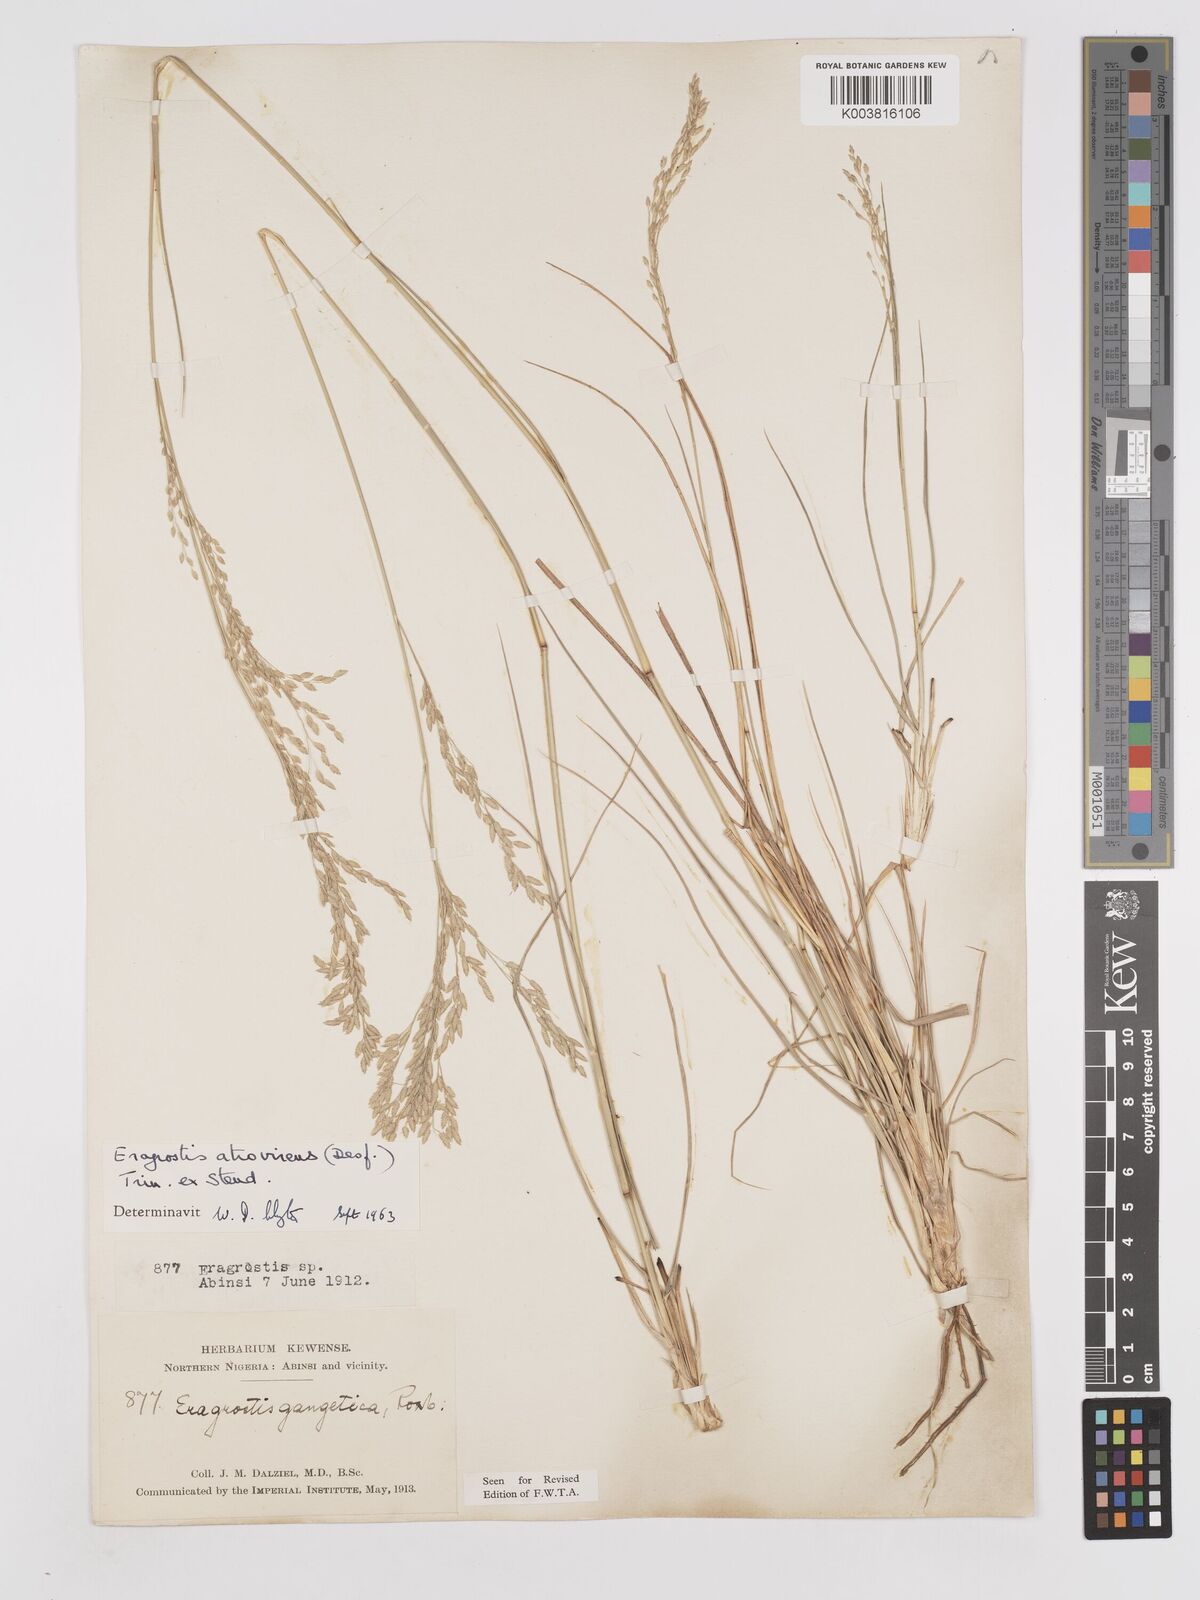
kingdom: Plantae
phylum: Tracheophyta
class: Liliopsida
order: Poales
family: Poaceae
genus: Eragrostis
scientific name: Eragrostis atrovirens
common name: Thalia lovegrass
